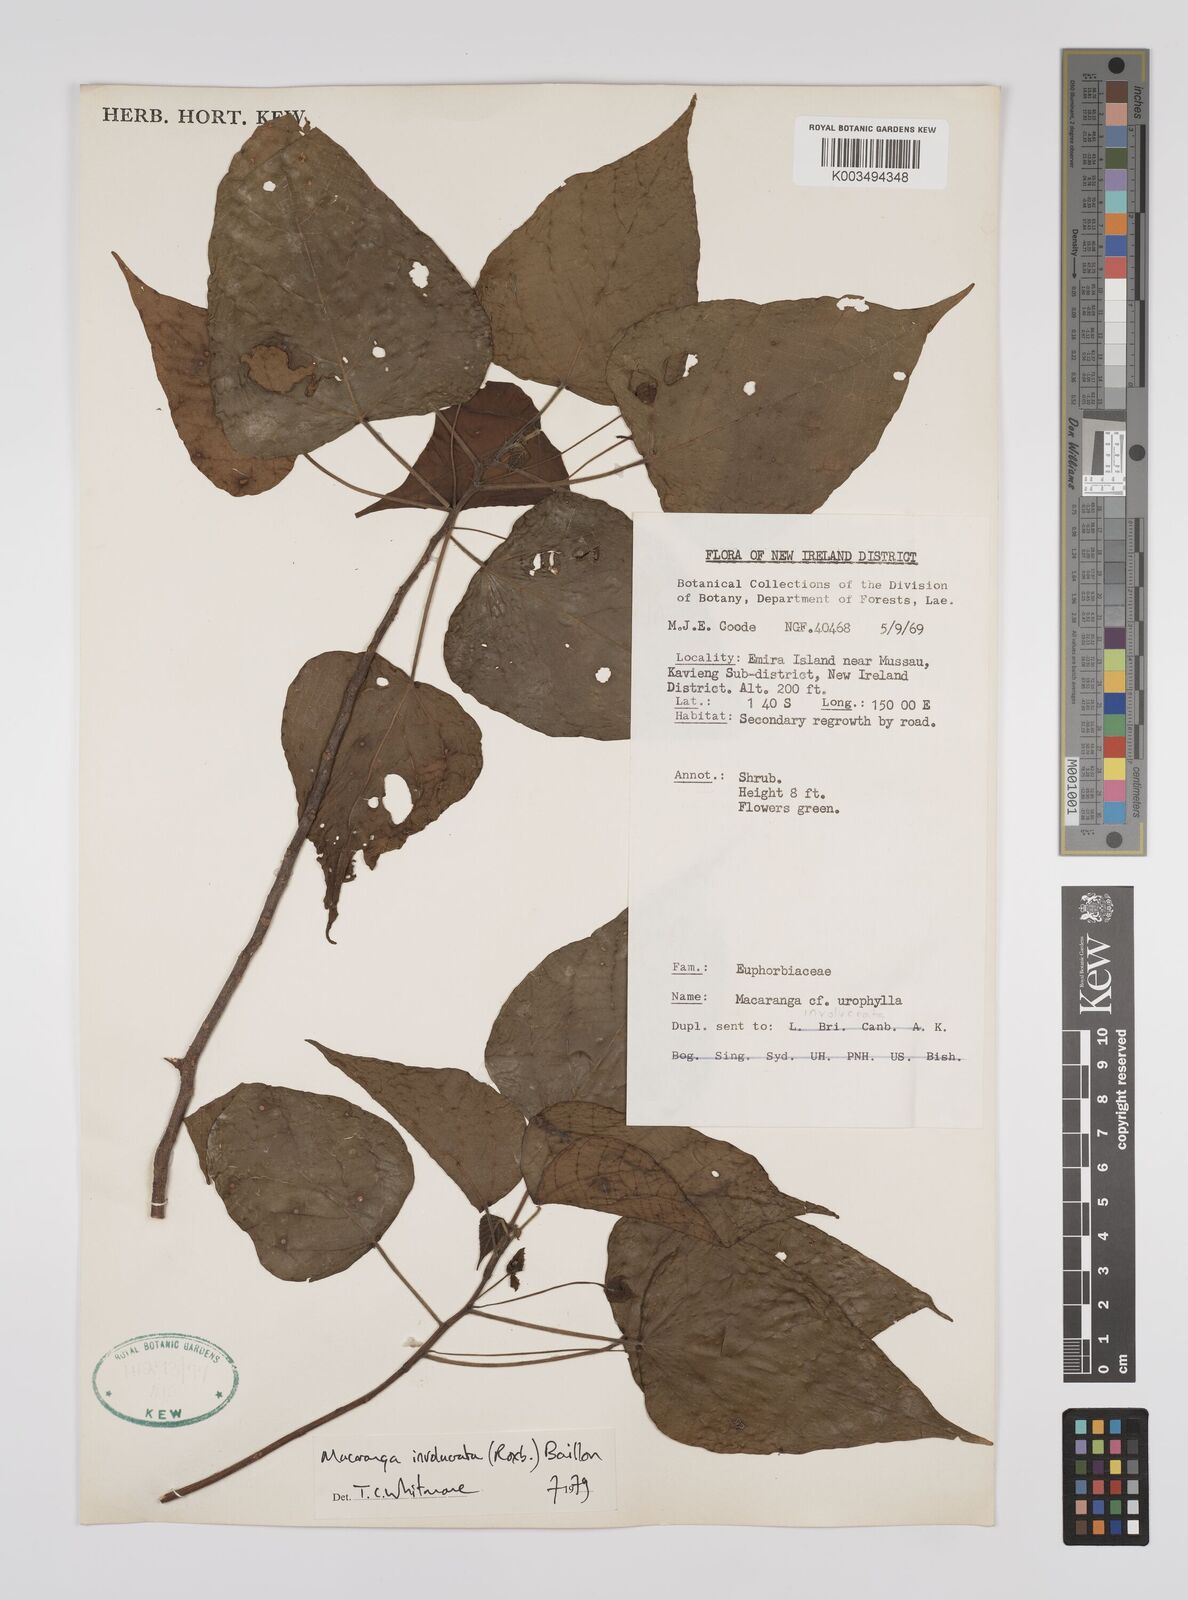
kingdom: Plantae
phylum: Tracheophyta
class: Magnoliopsida
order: Malpighiales
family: Euphorbiaceae
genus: Macaranga
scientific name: Macaranga involucrata
